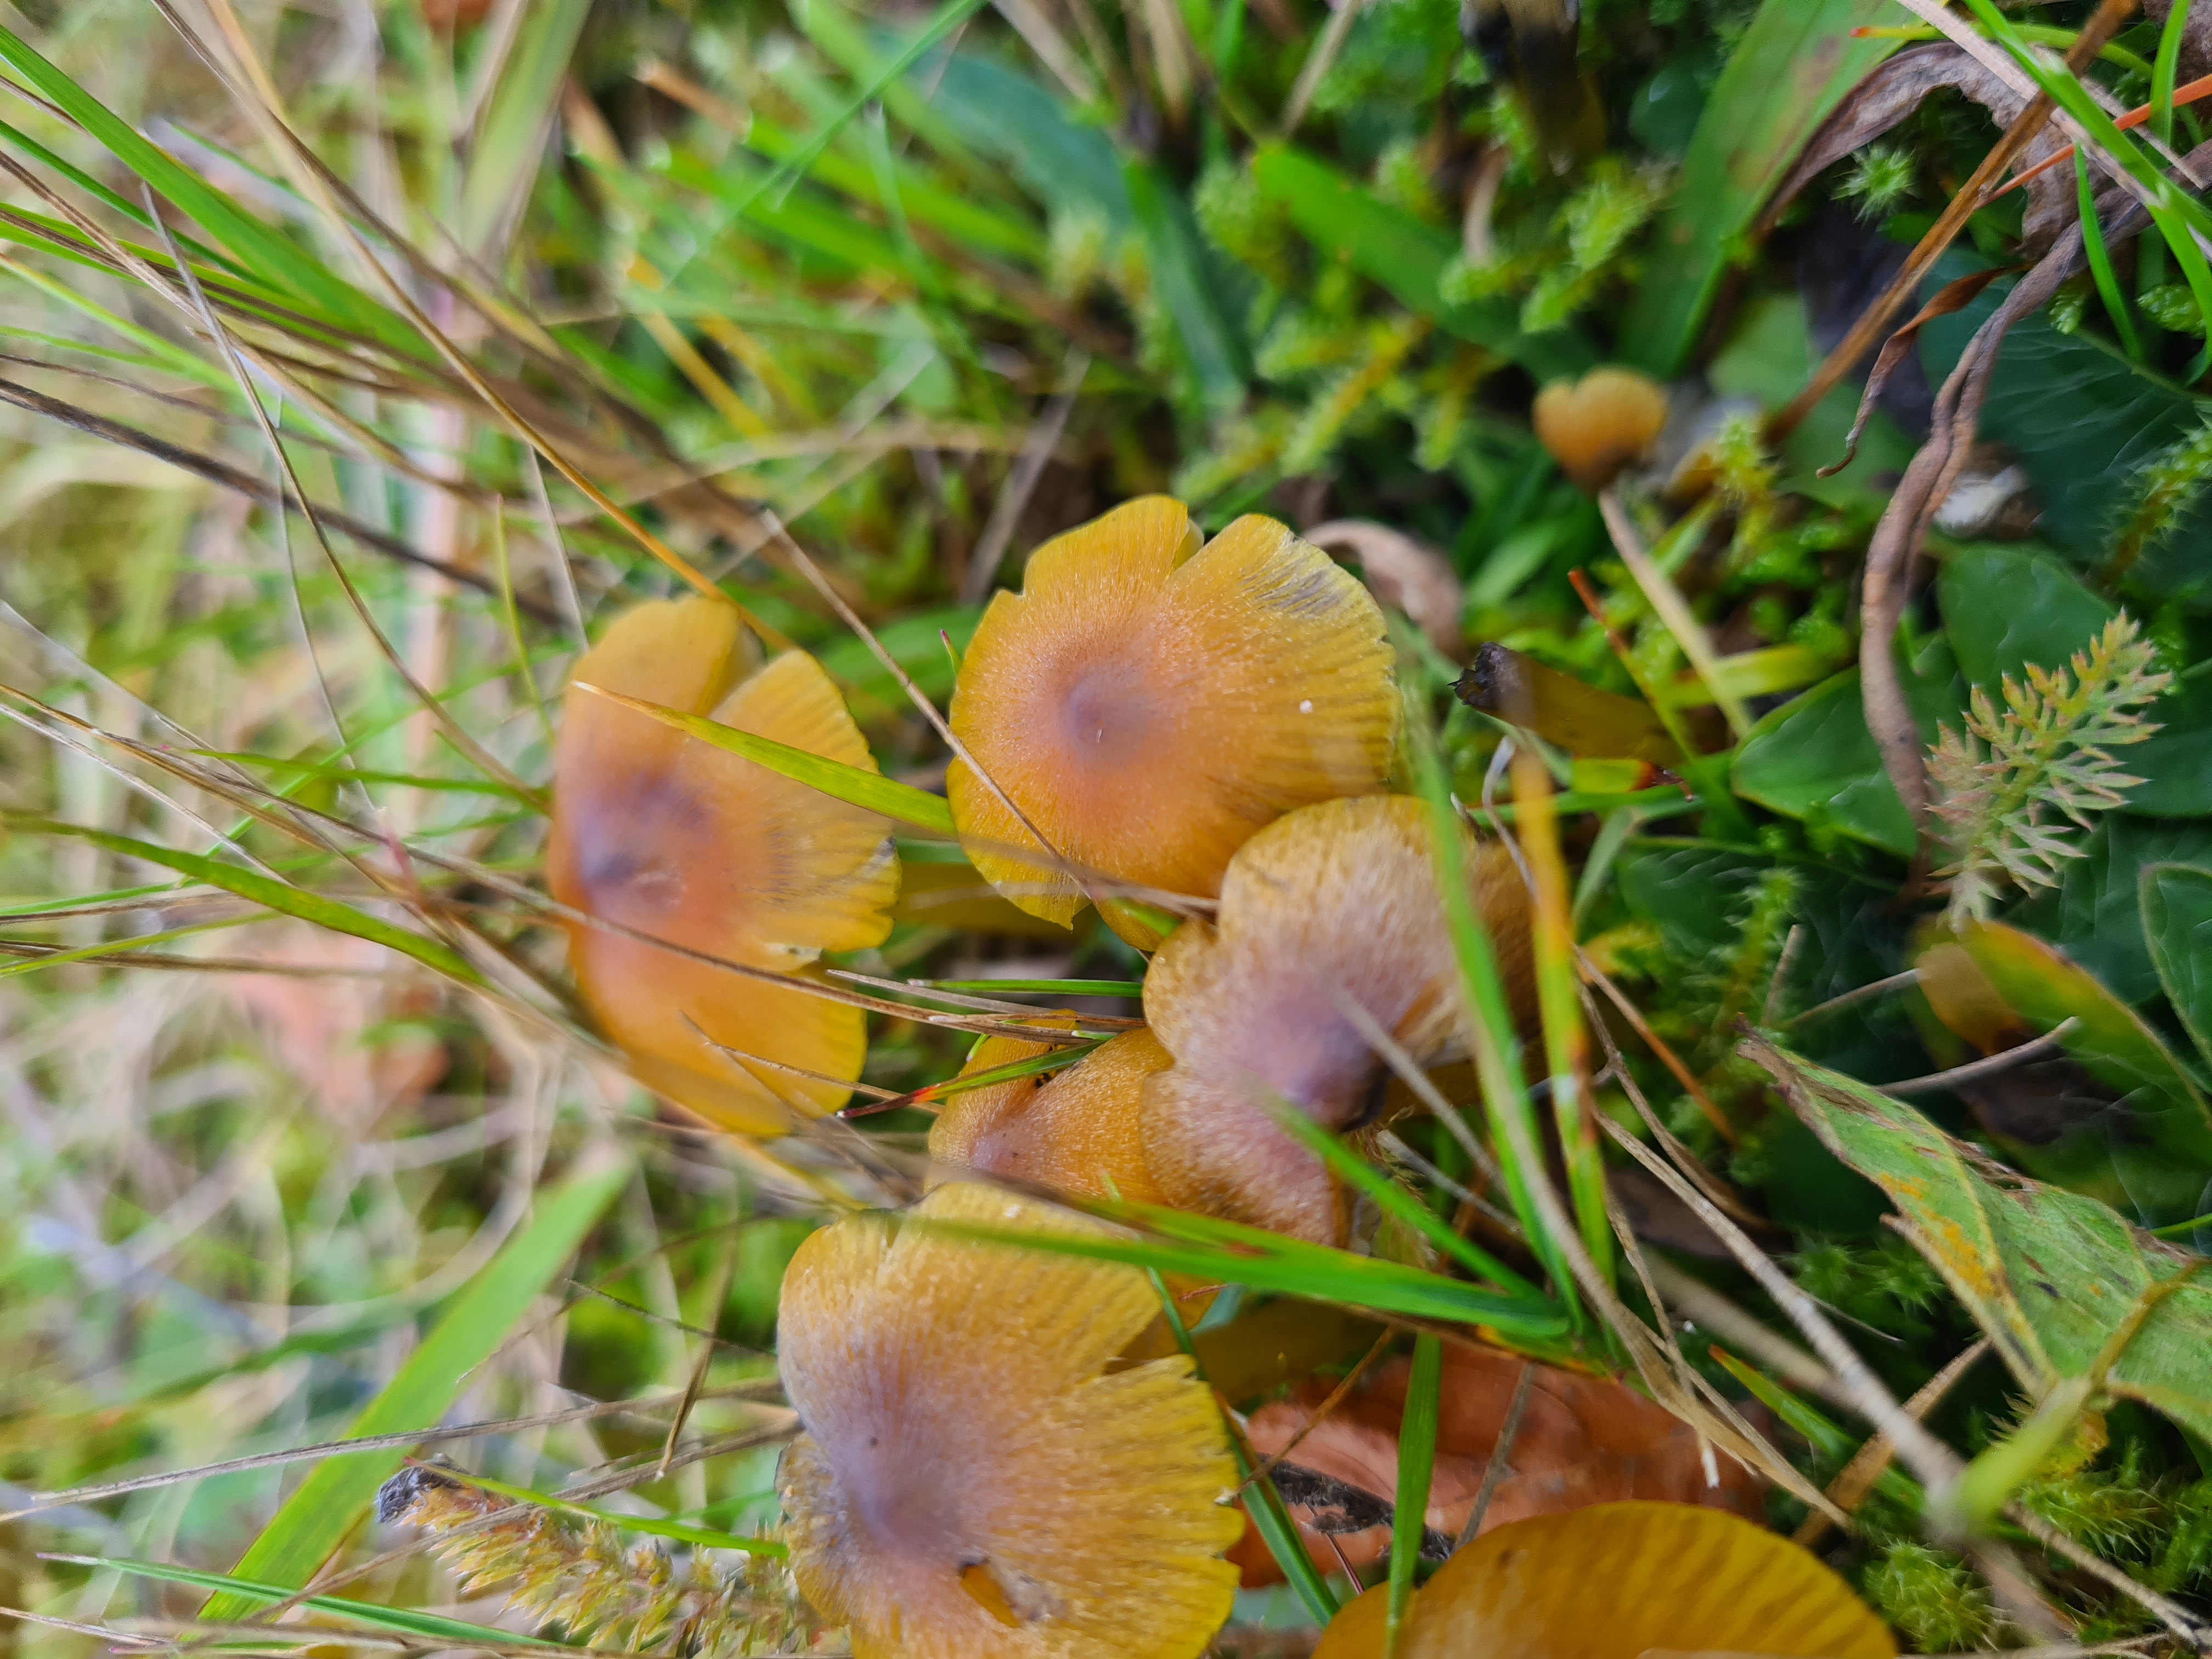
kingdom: Fungi
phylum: Basidiomycota
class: Agaricomycetes
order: Agaricales
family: Hygrophoraceae
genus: Hygrocybe
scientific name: Hygrocybe conica
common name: Kegle-vokshat
